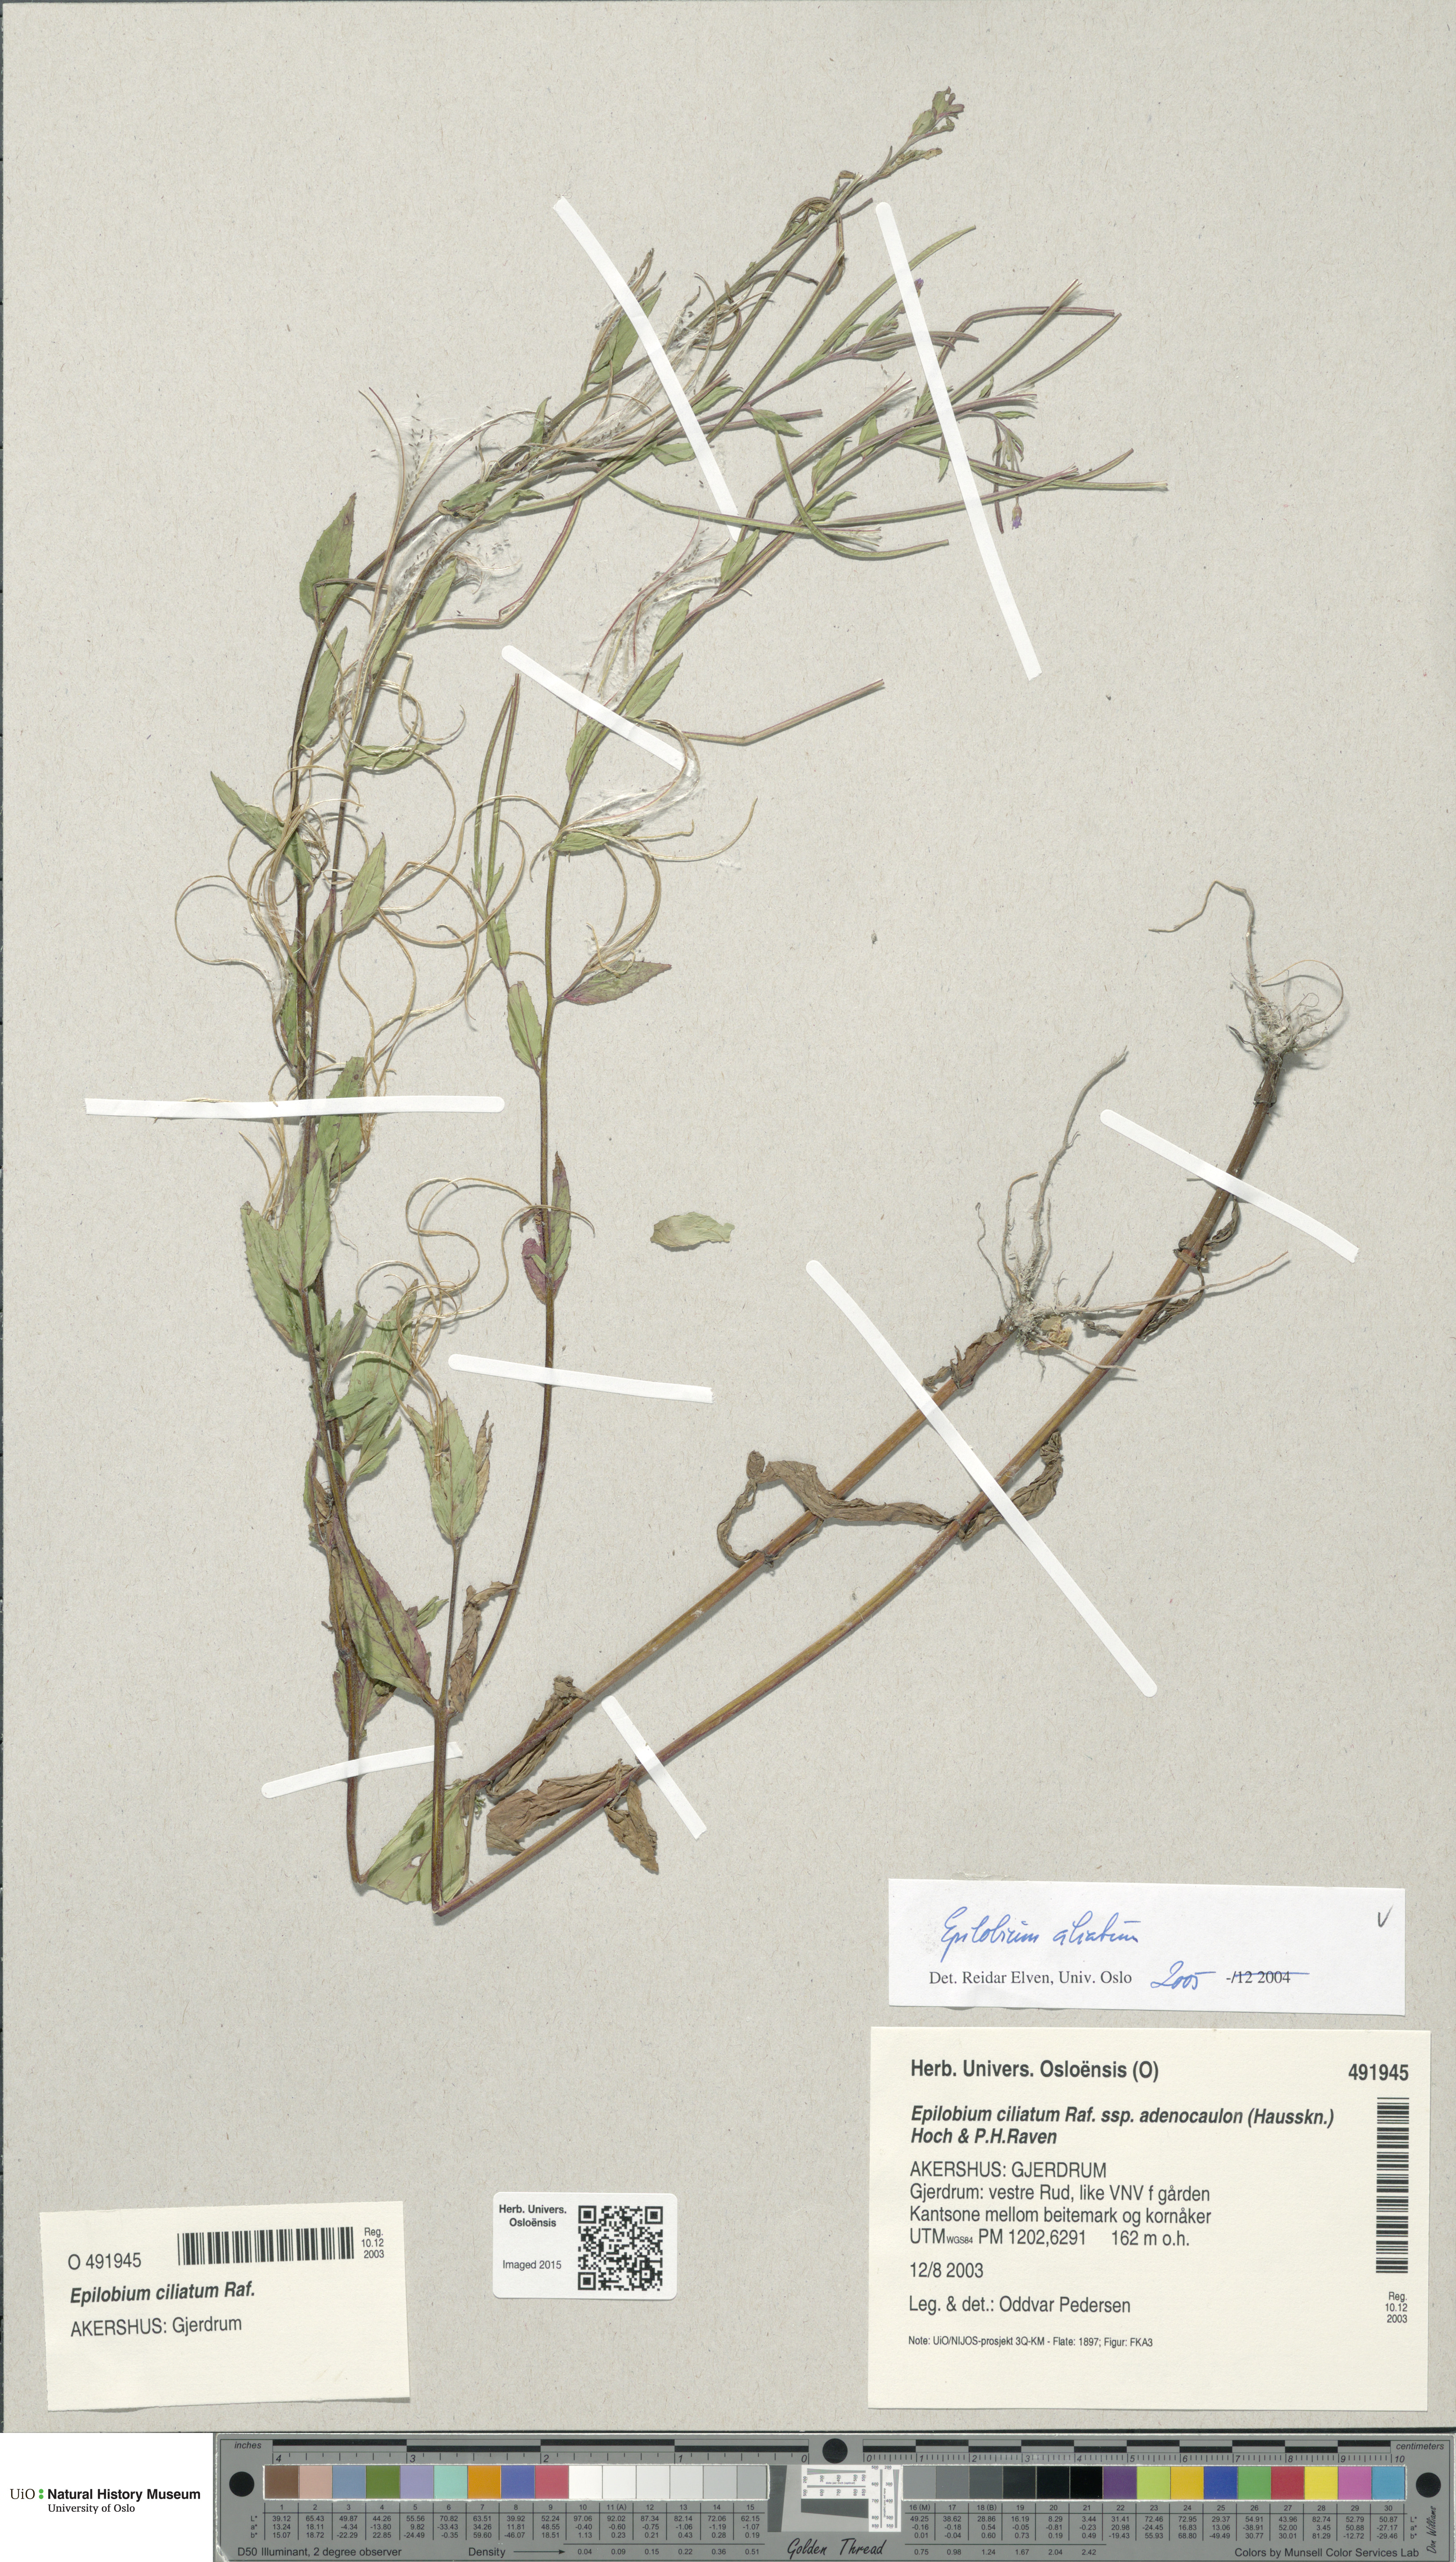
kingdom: Plantae
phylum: Tracheophyta
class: Magnoliopsida
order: Myrtales
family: Onagraceae
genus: Epilobium
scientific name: Epilobium ciliatum
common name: American willowherb
